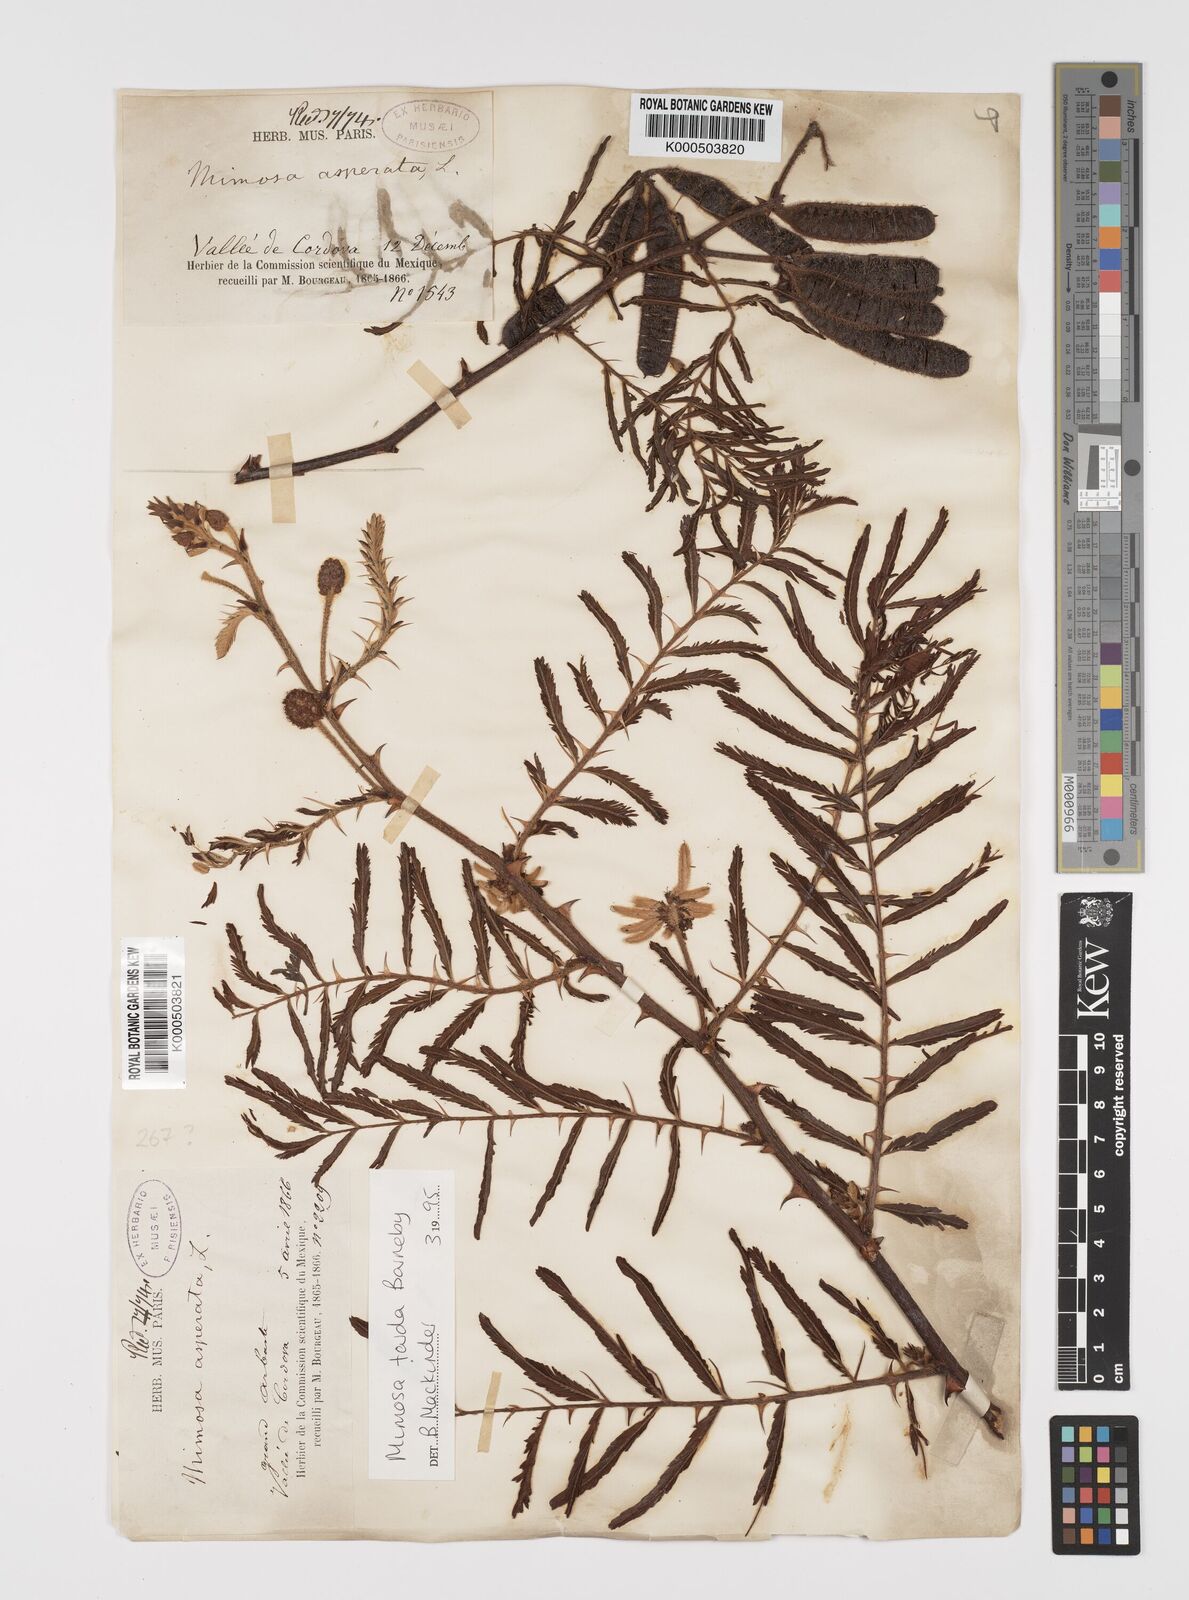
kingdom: Plantae
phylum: Tracheophyta
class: Magnoliopsida
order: Fabales
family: Fabaceae
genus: Mimosa
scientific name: Mimosa pigra
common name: Black mimosa
